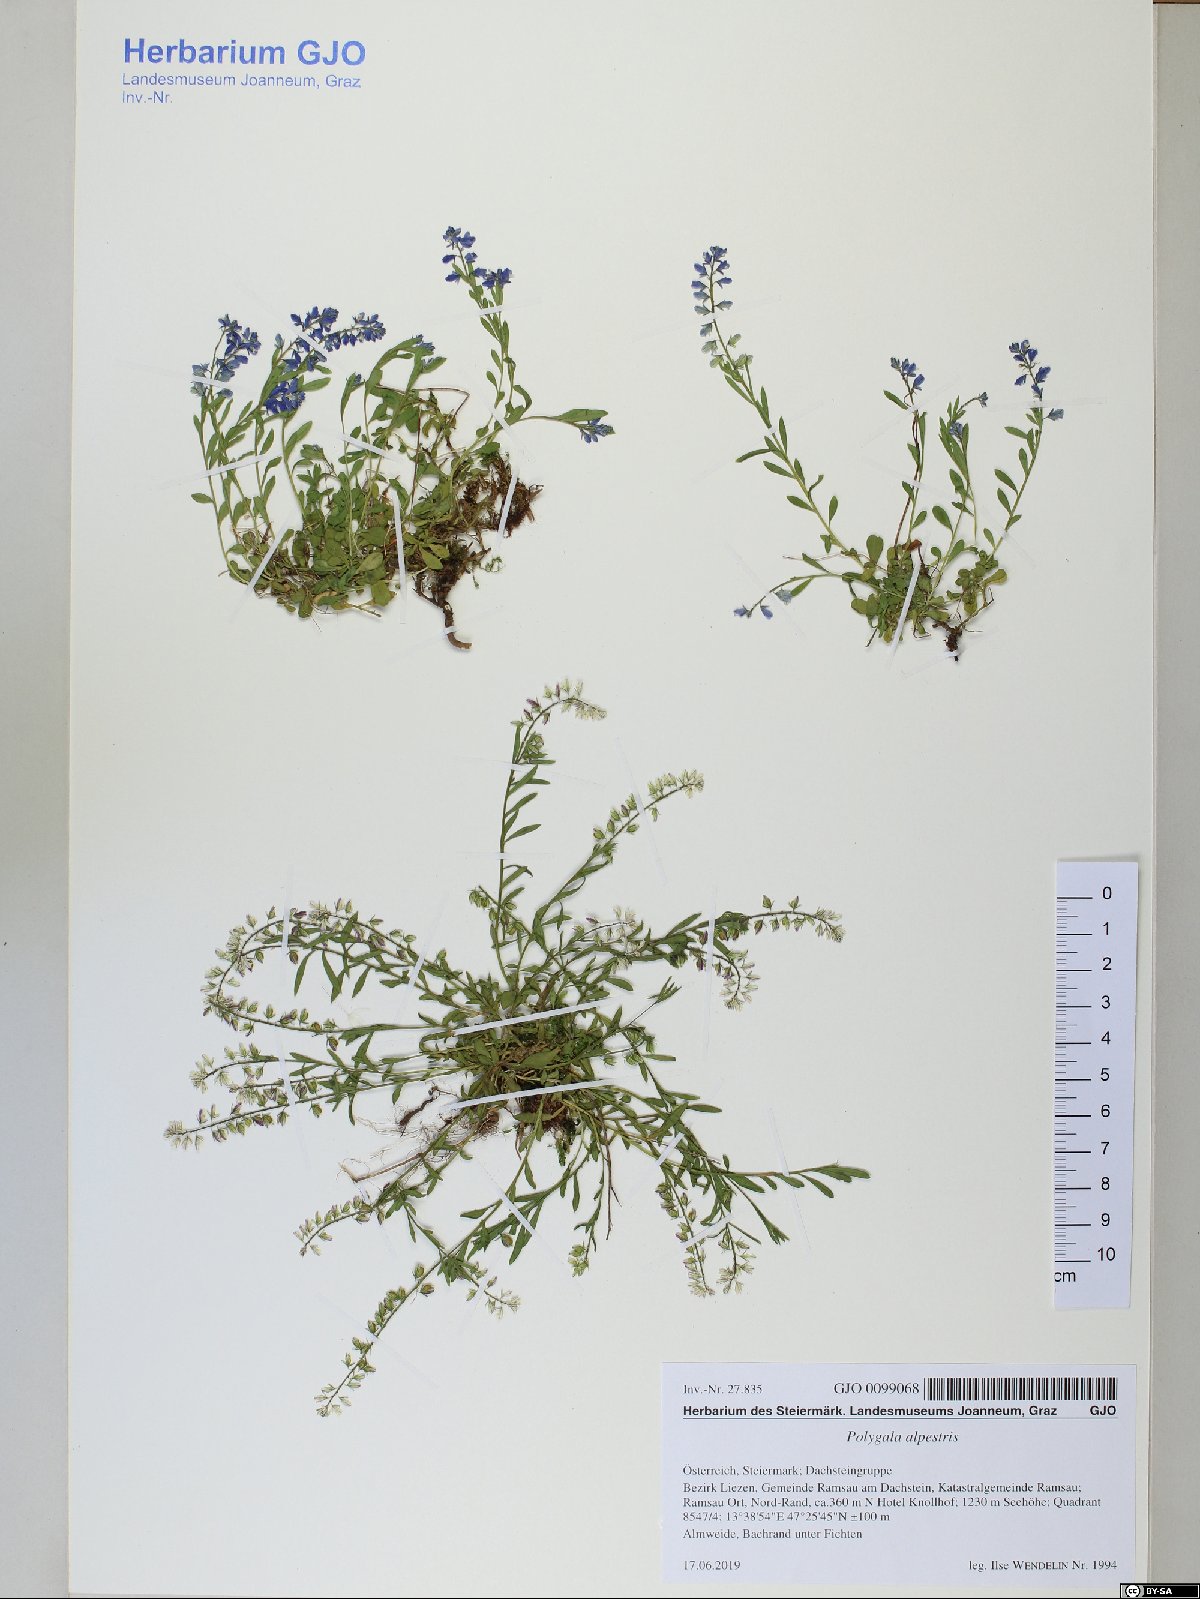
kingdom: Plantae
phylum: Tracheophyta
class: Magnoliopsida
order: Fabales
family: Polygalaceae
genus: Polygala
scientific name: Polygala alpestris
